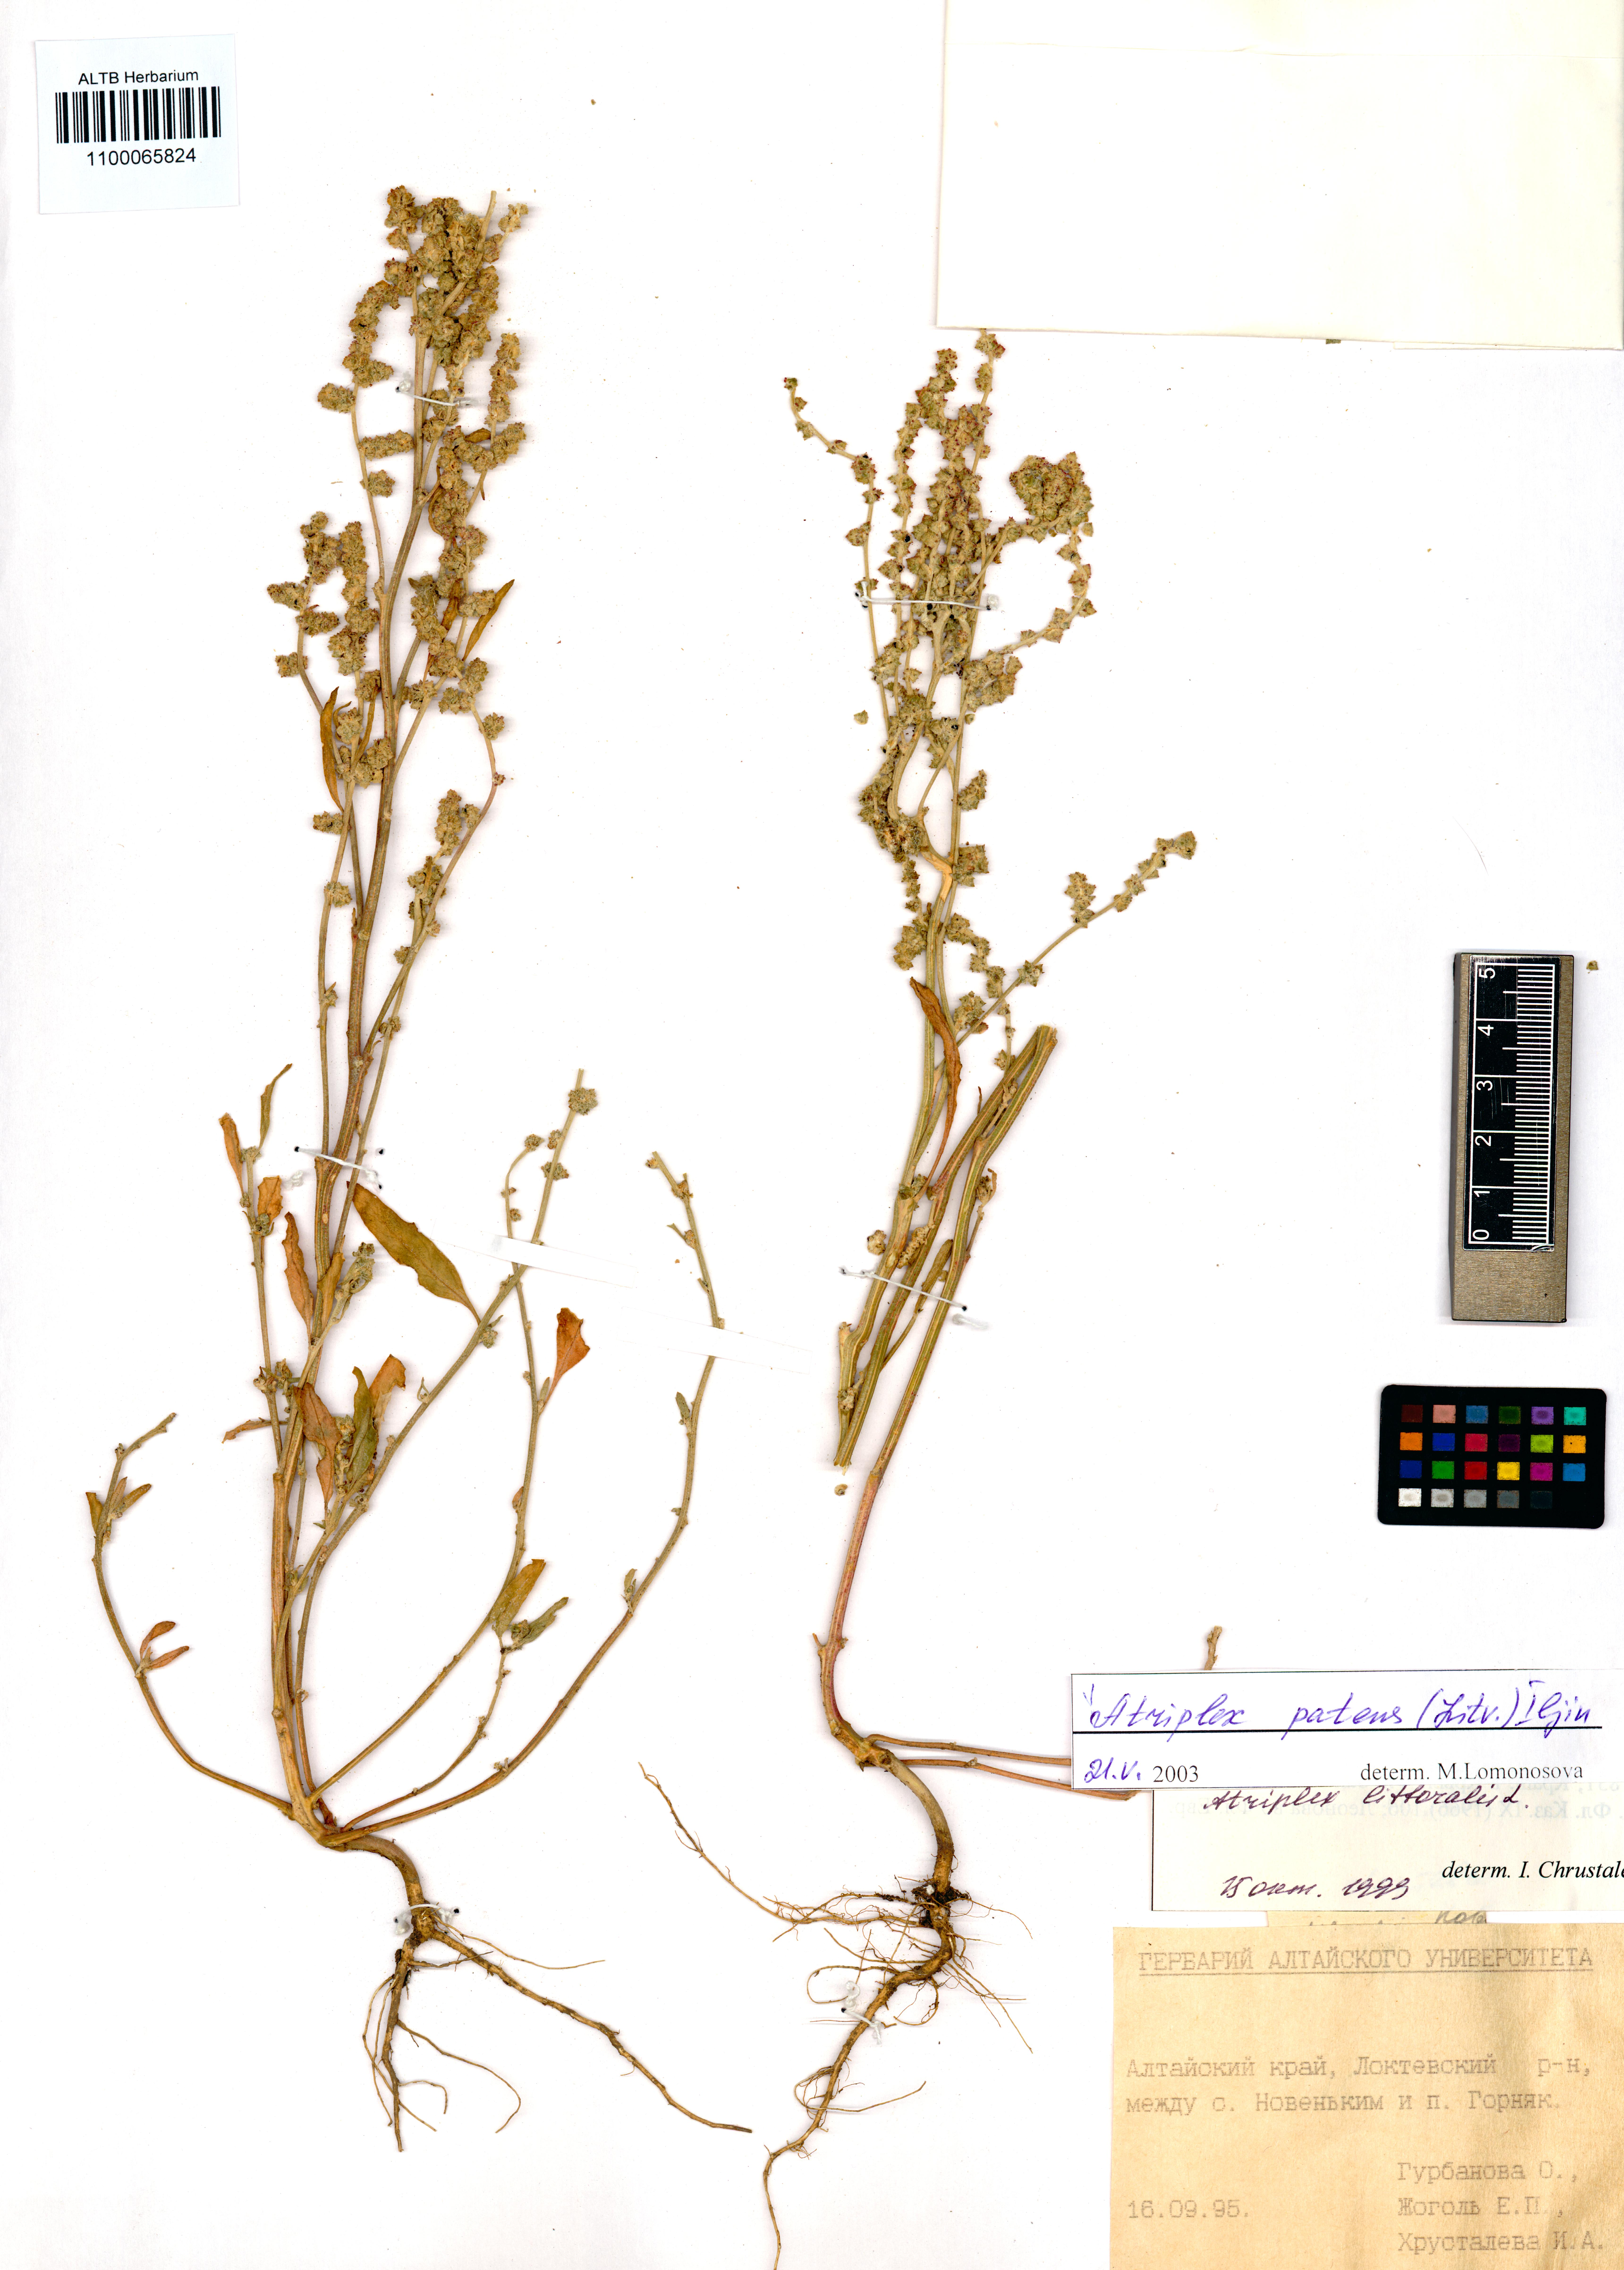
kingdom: Plantae
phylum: Tracheophyta
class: Magnoliopsida
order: Caryophyllales
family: Amaranthaceae
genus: Atriplex
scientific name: Atriplex patens
